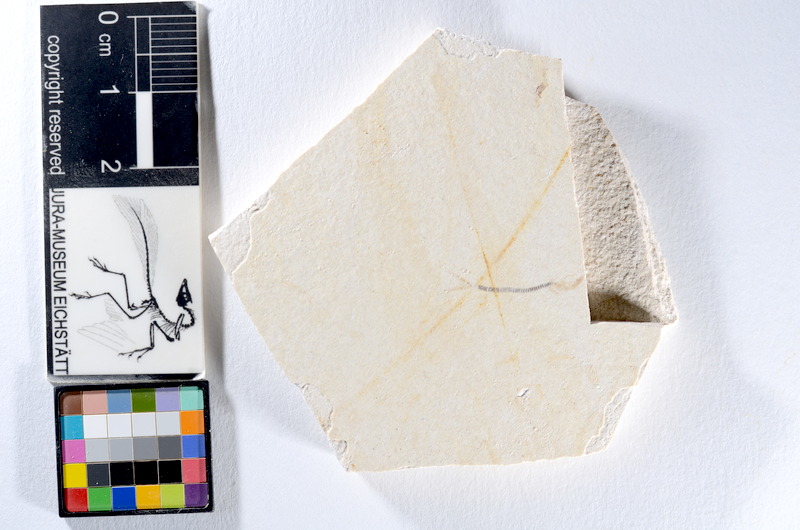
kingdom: Animalia
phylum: Chordata
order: Salmoniformes
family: Orthogonikleithridae
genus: Orthogonikleithrus
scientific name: Orthogonikleithrus hoelli
